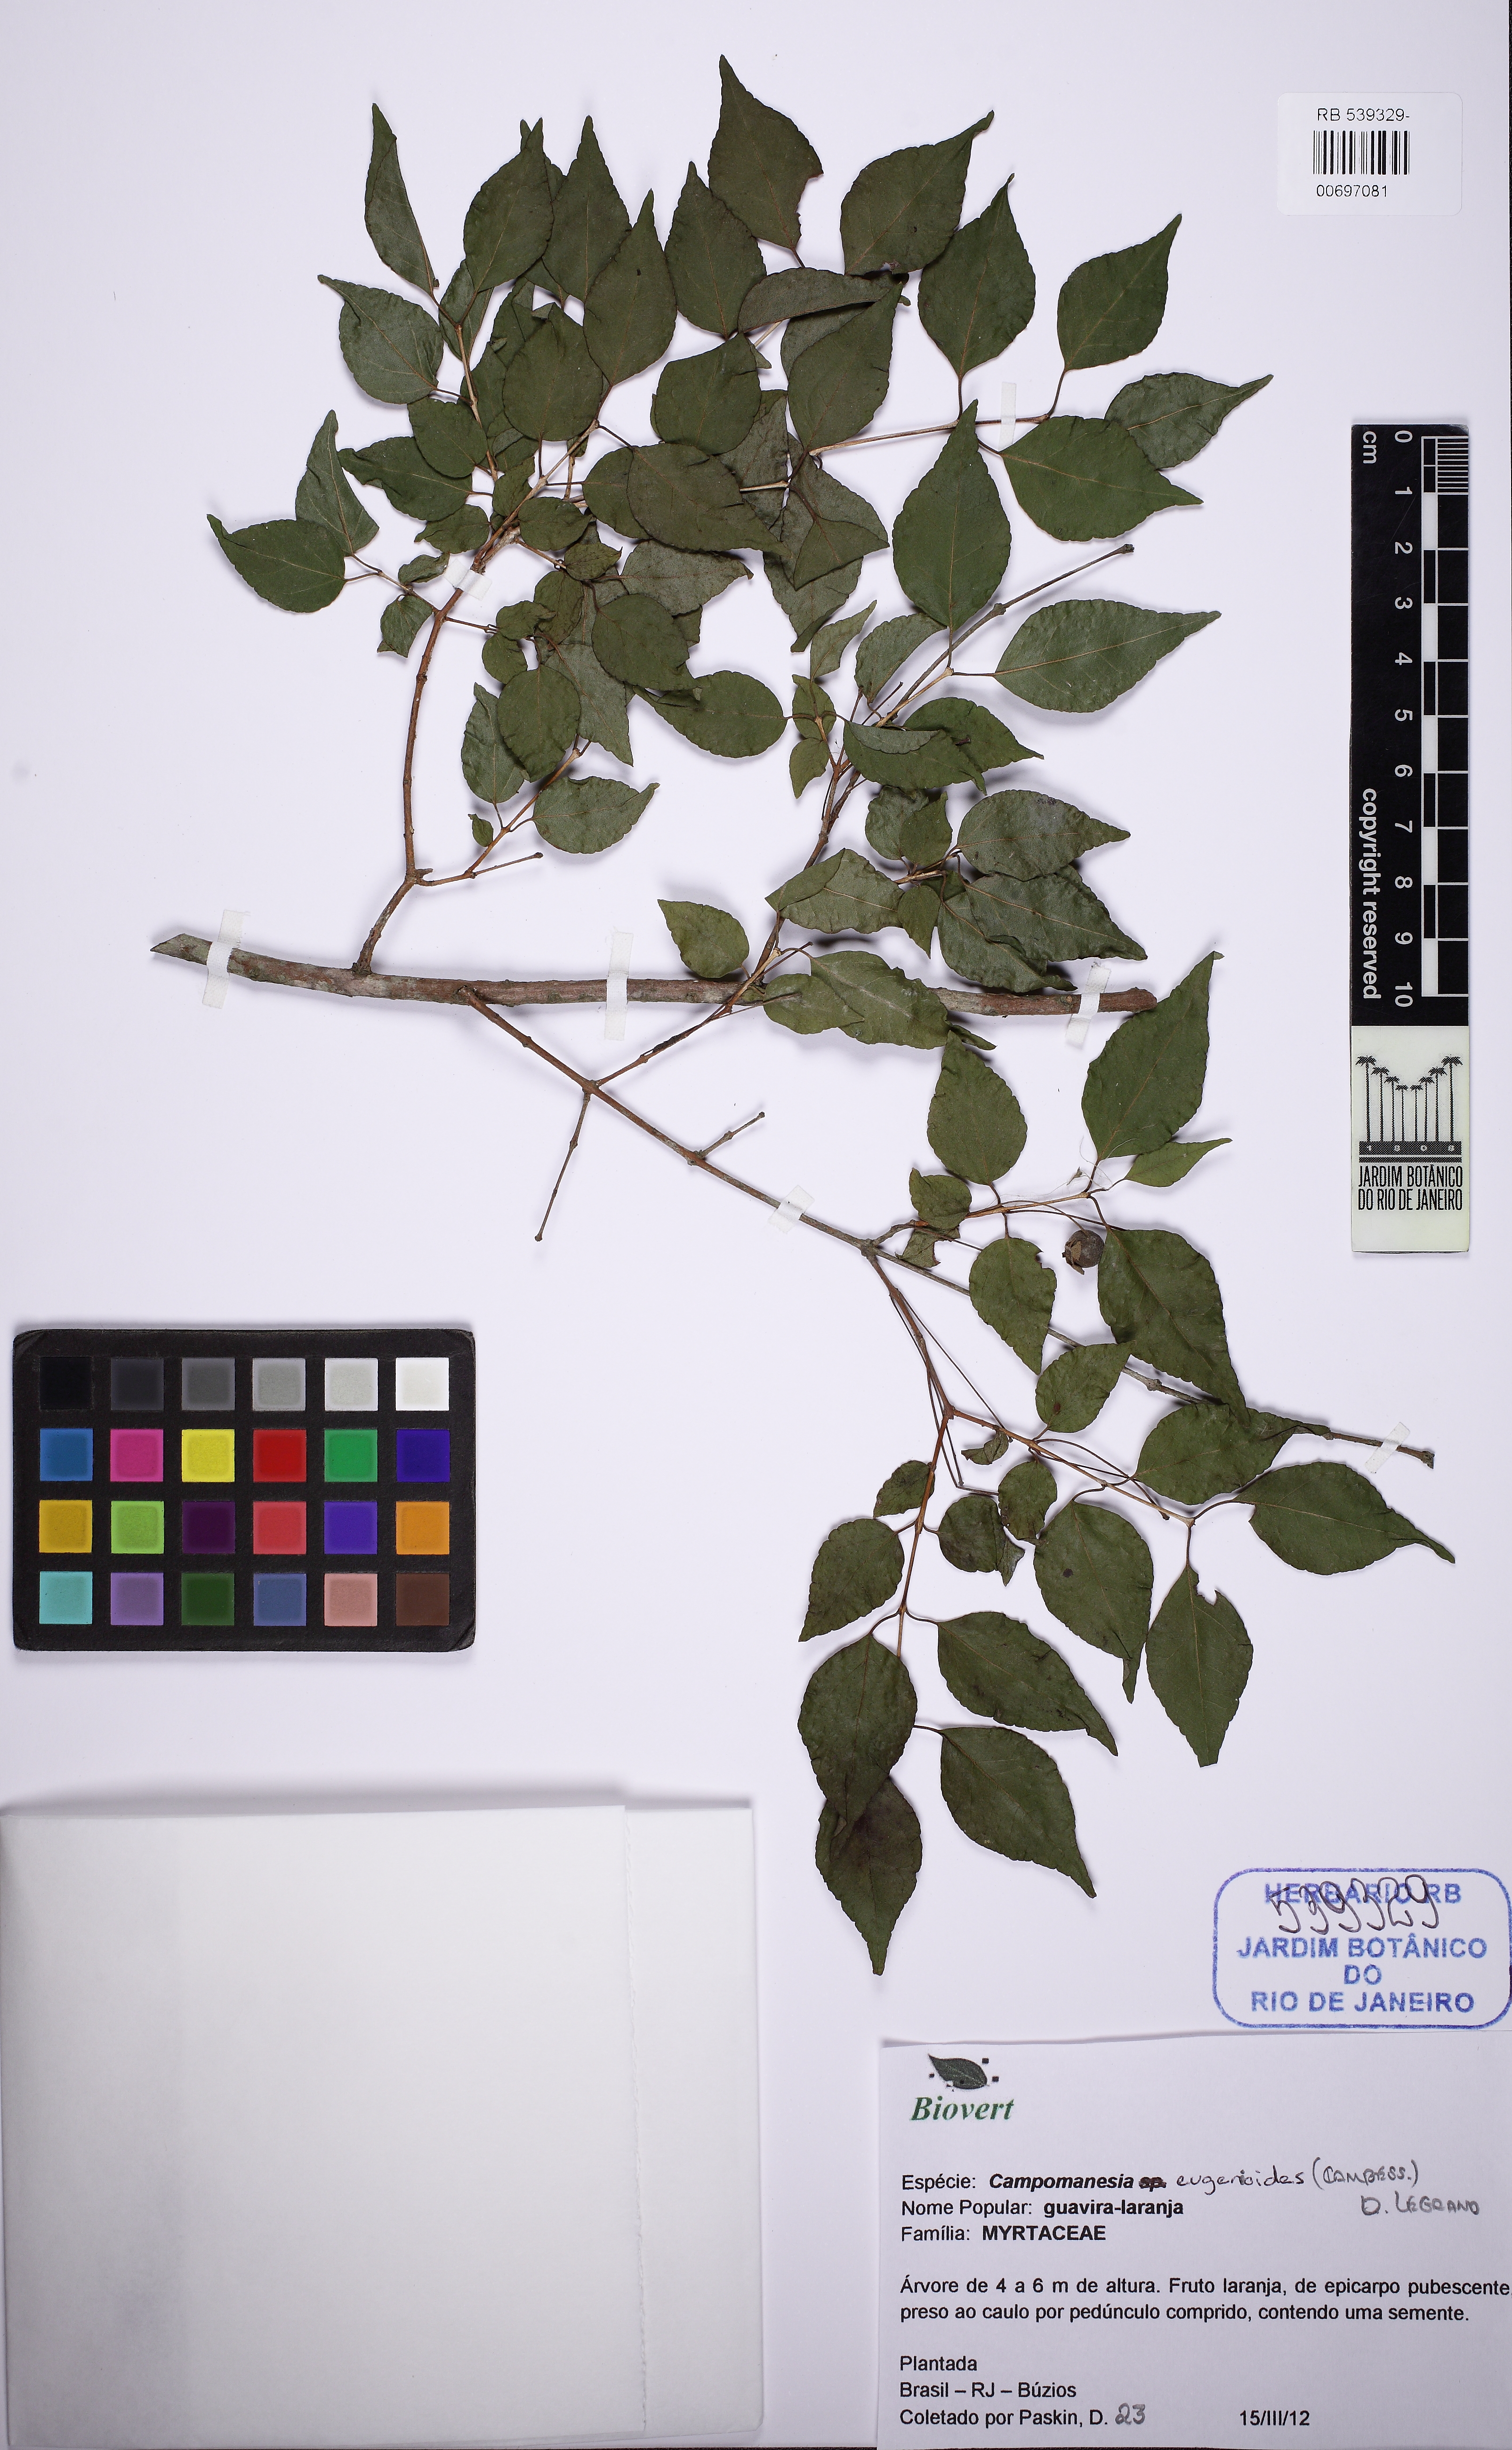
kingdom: Plantae
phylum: Tracheophyta
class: Magnoliopsida
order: Myrtales
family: Myrtaceae
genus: Campomanesia
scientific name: Campomanesia eugenioides
